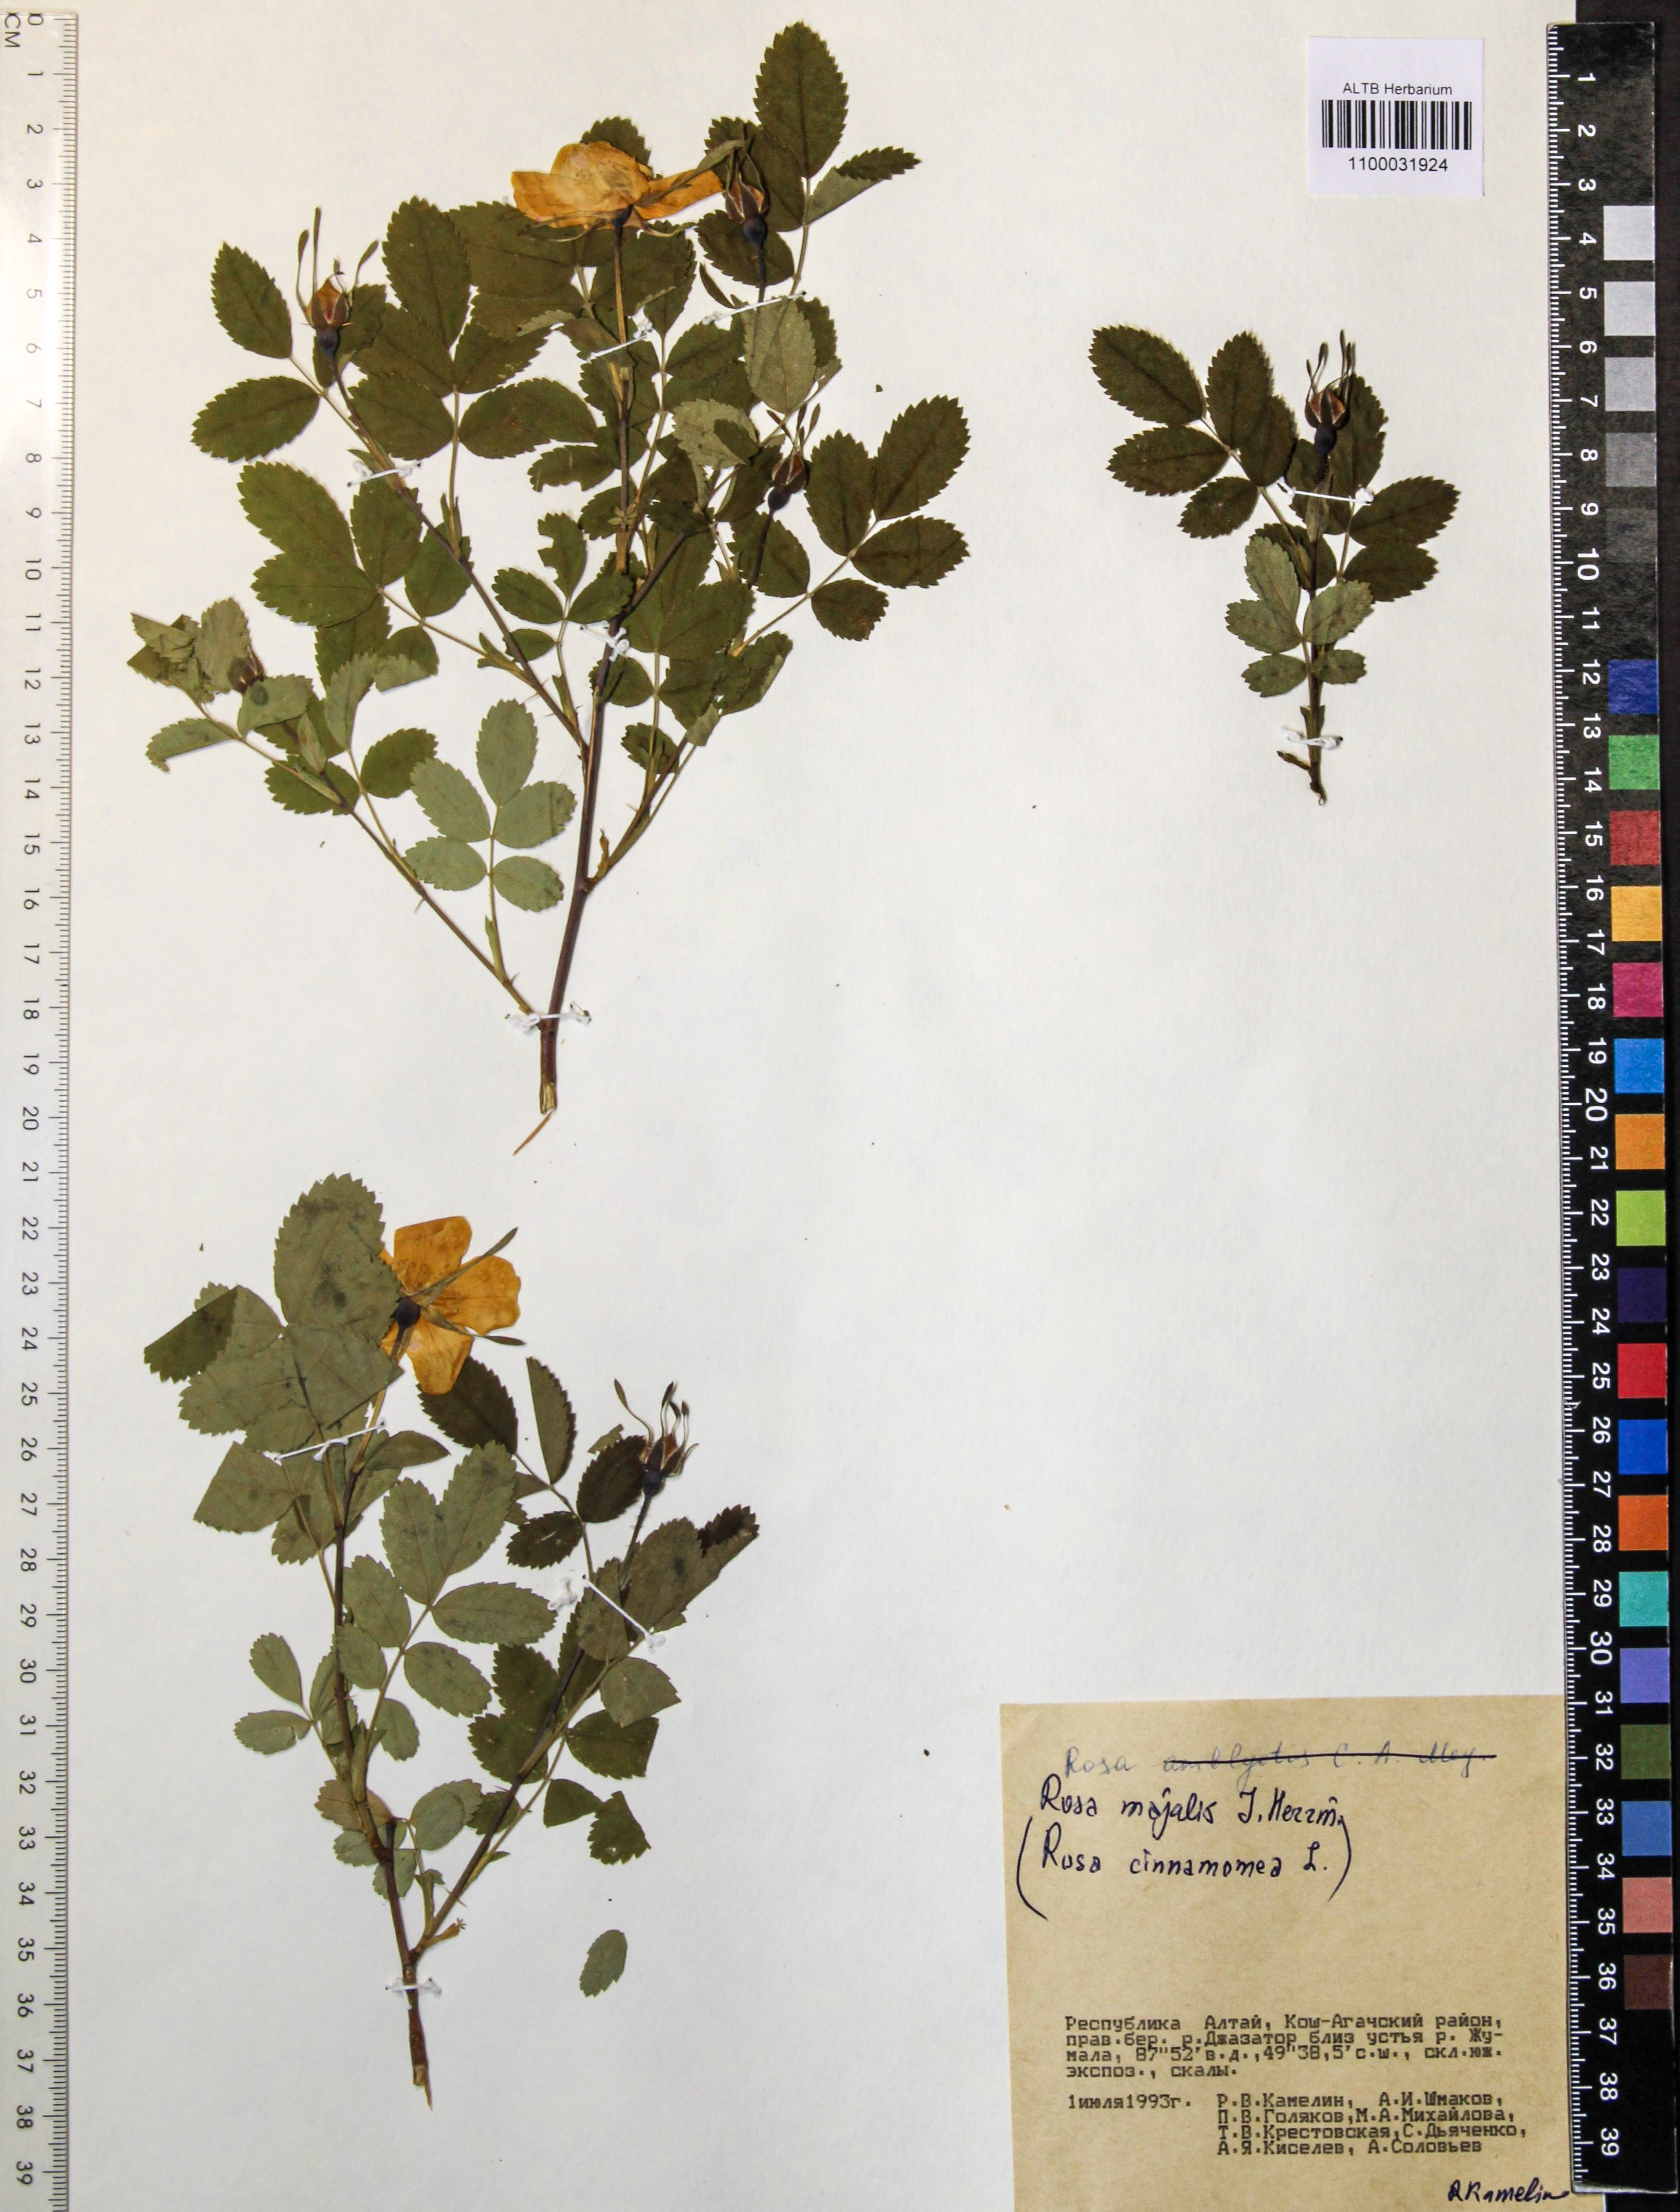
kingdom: Plantae
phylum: Tracheophyta
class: Magnoliopsida
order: Rosales
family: Rosaceae
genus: Rosa
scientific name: Rosa majalis
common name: Cinnamon rose
